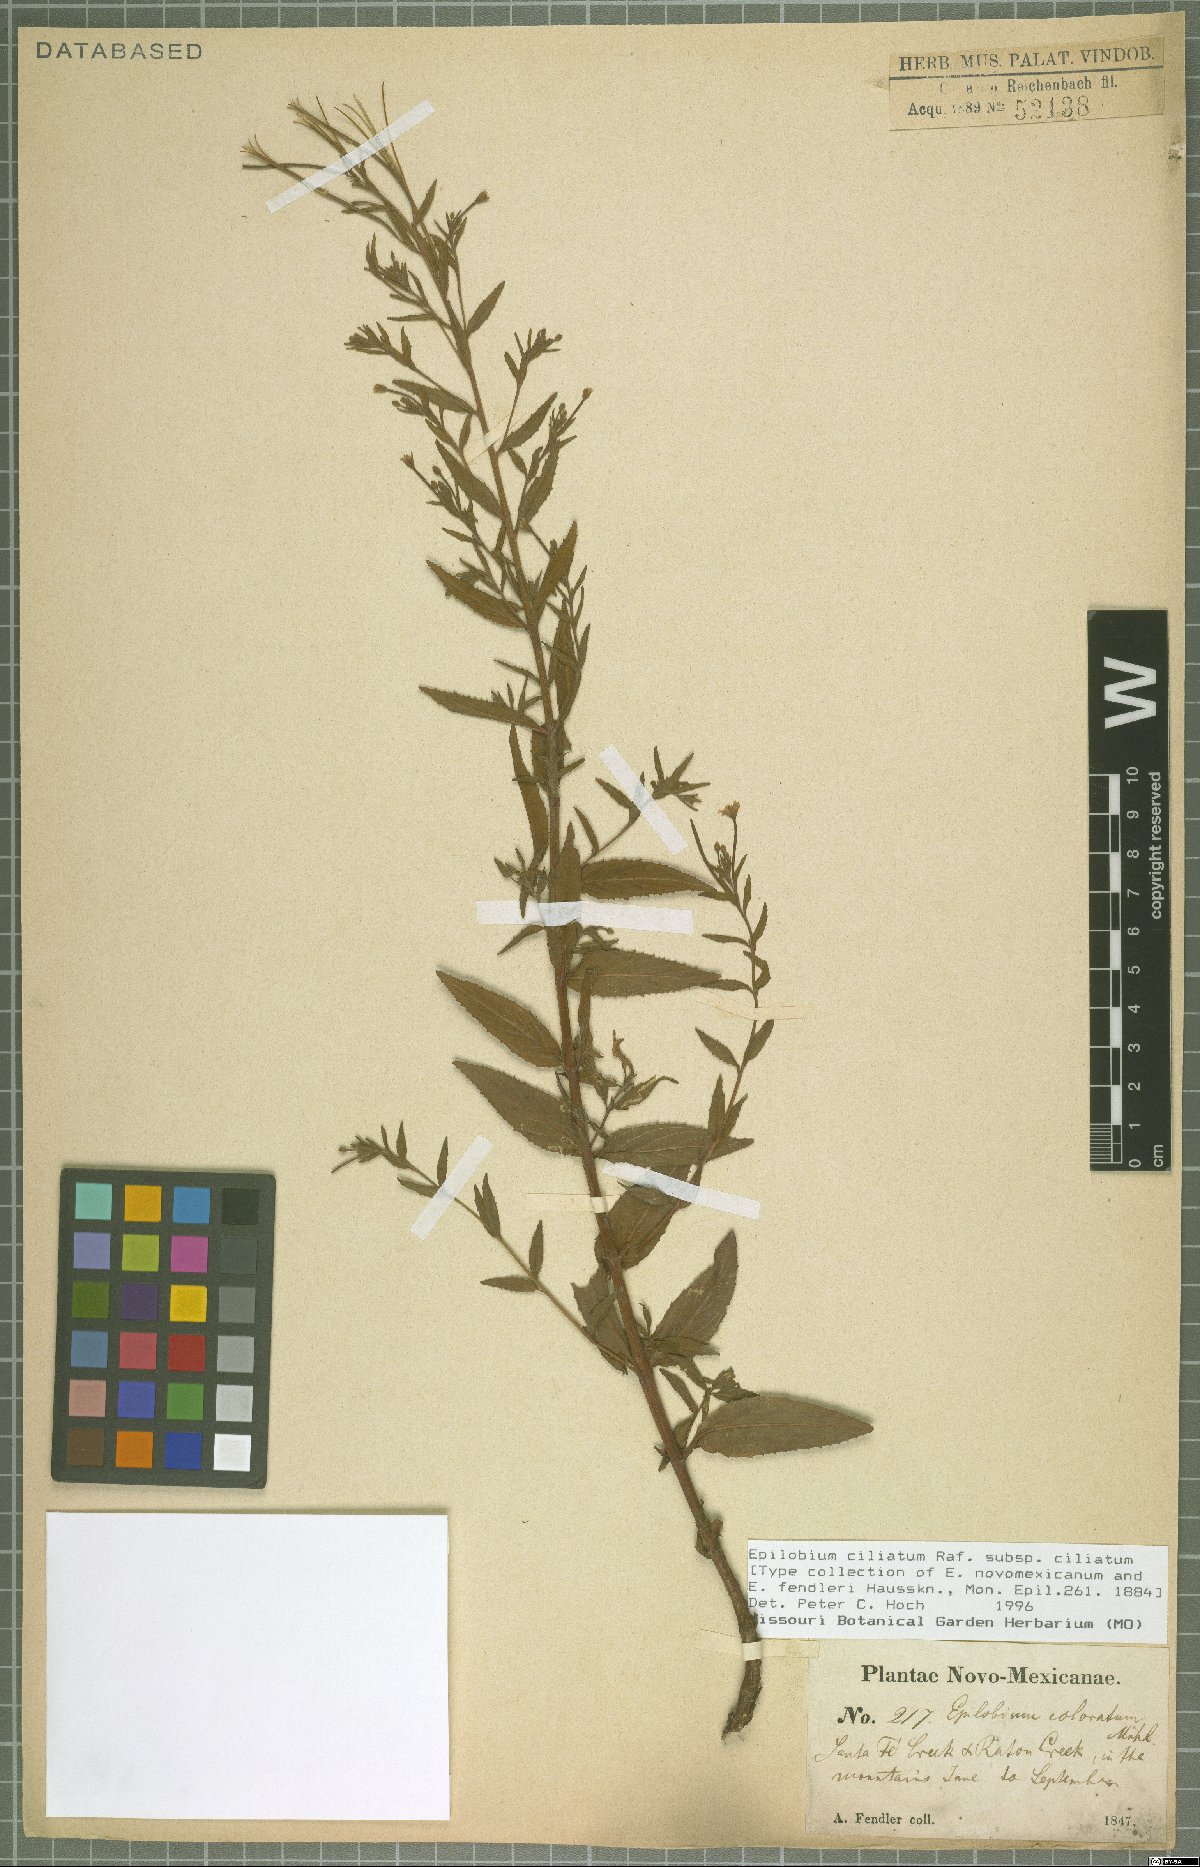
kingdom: Plantae
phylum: Tracheophyta
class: Magnoliopsida
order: Myrtales
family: Onagraceae
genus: Epilobium
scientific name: Epilobium ciliatum
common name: American willowherb
